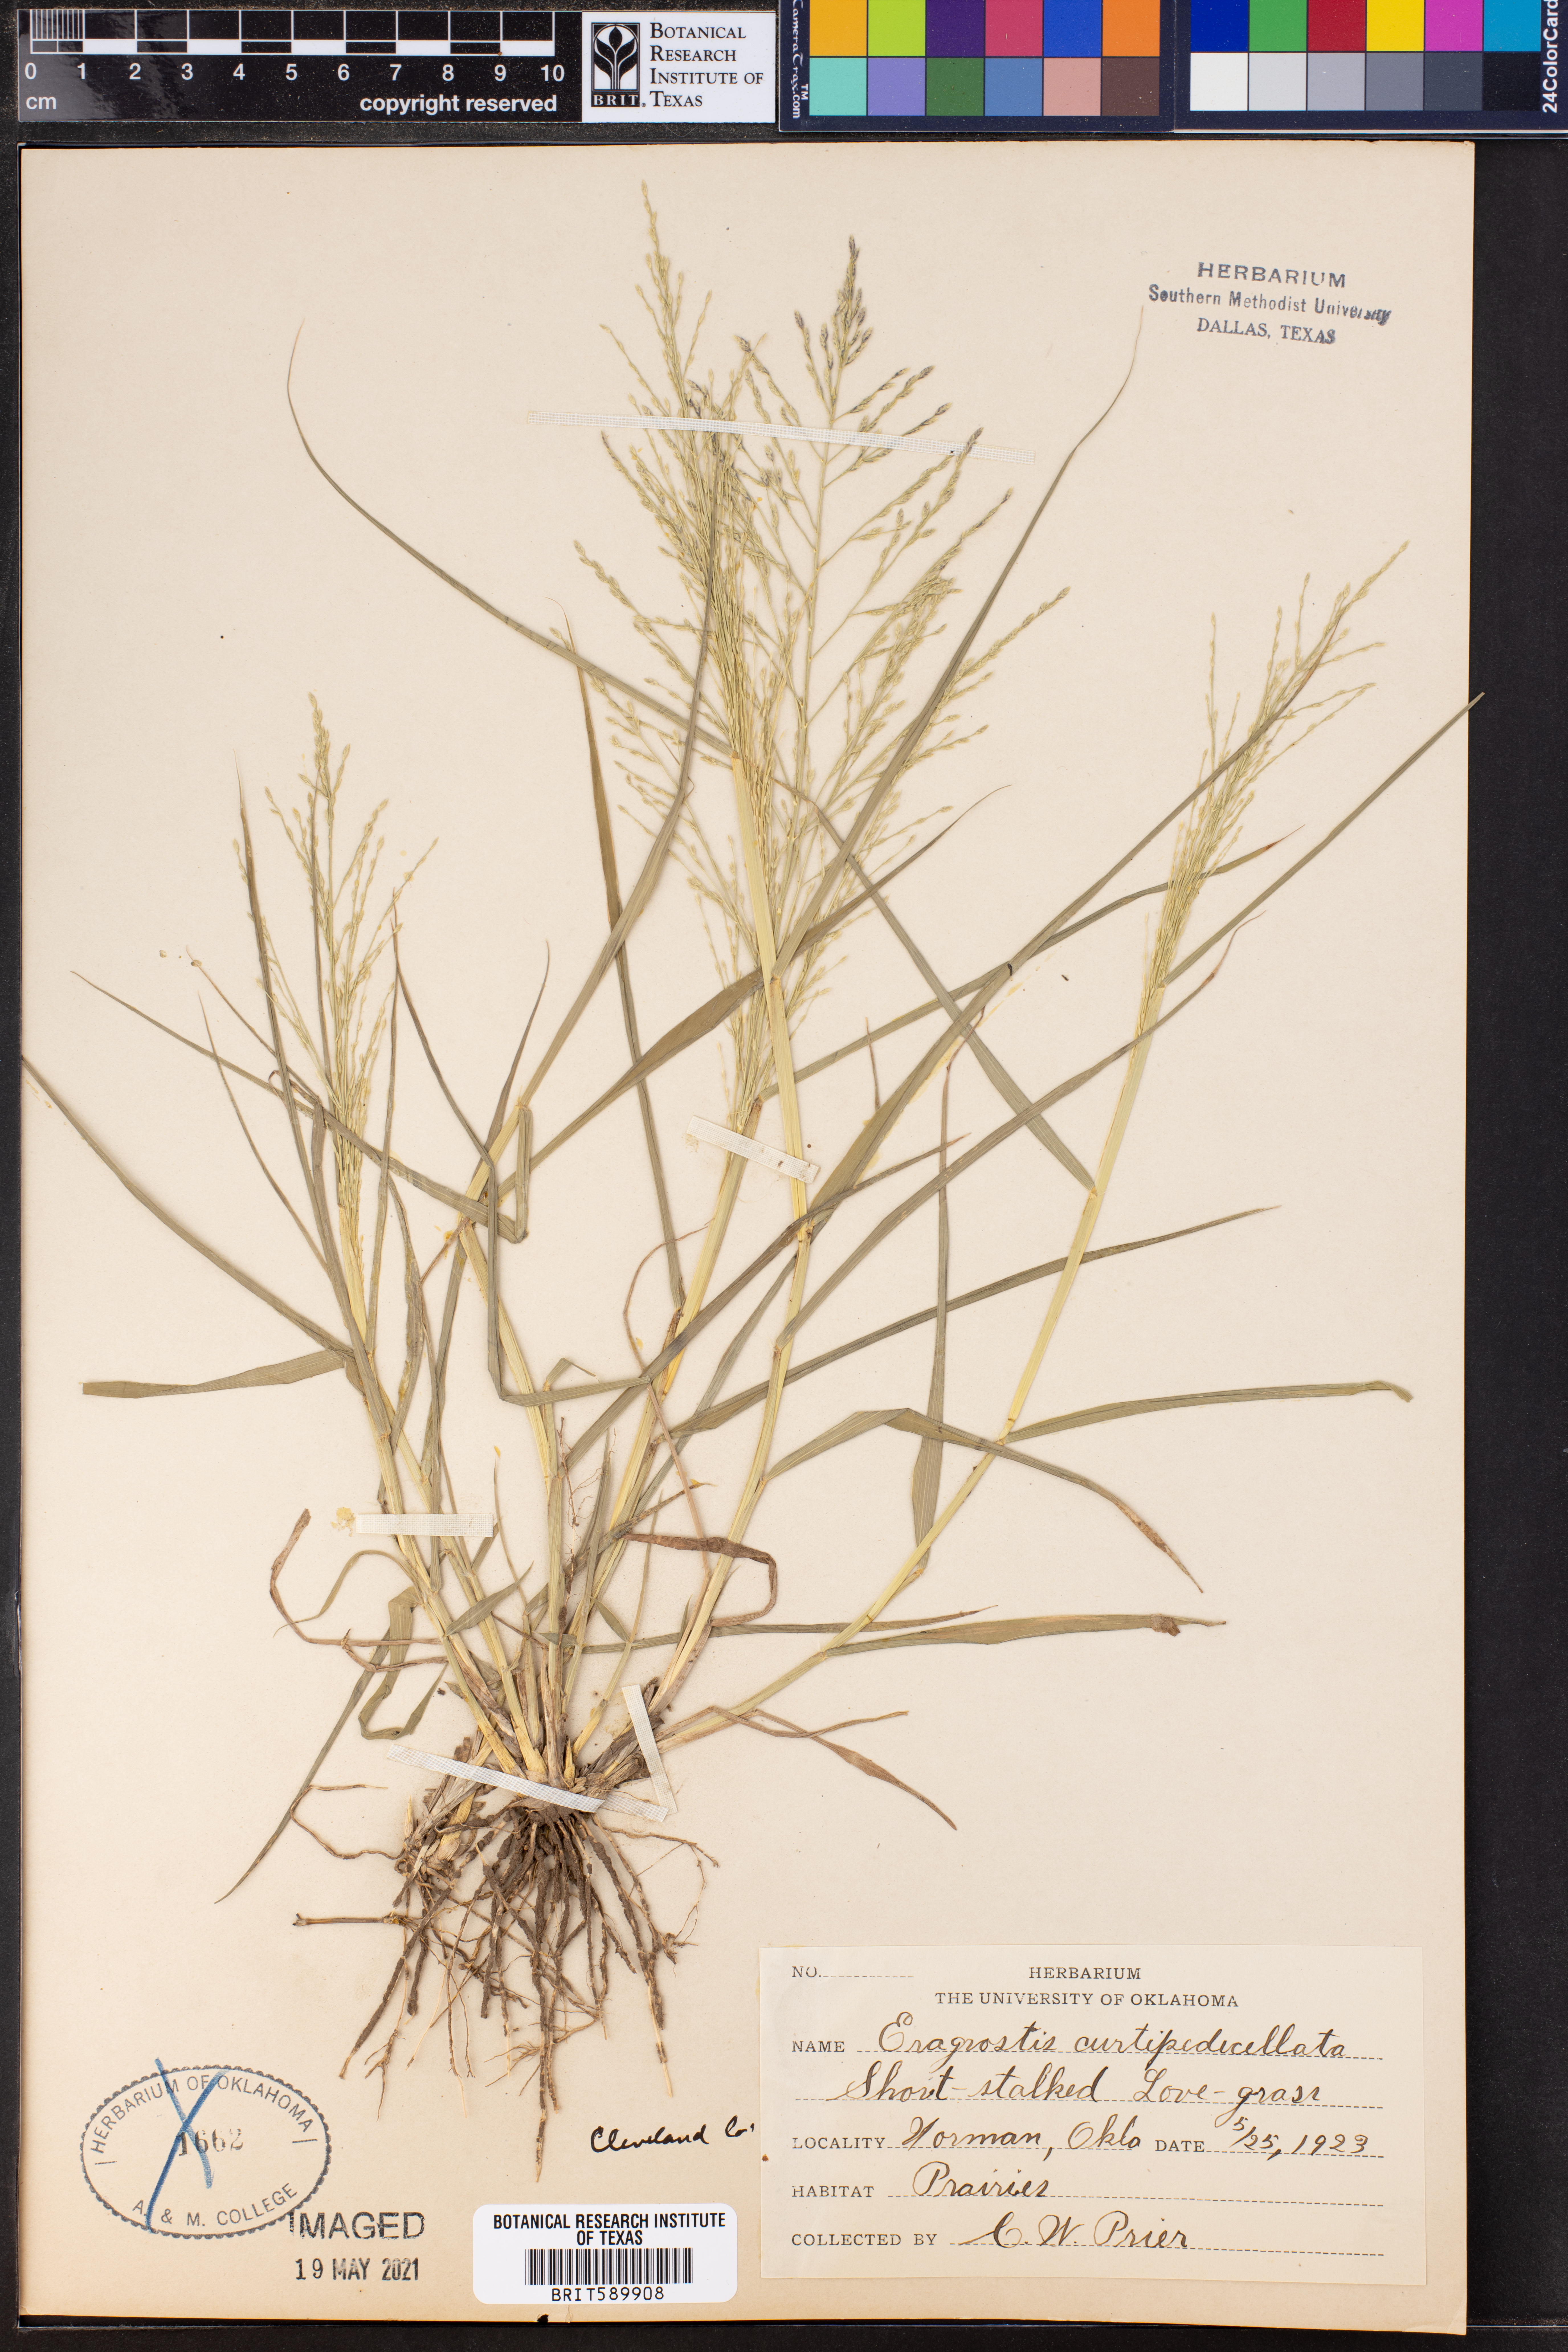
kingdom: Plantae
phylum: Tracheophyta
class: Liliopsida
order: Poales
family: Poaceae
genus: Eragrostis
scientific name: Eragrostis curtipedicellata
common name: Gummy love grass
